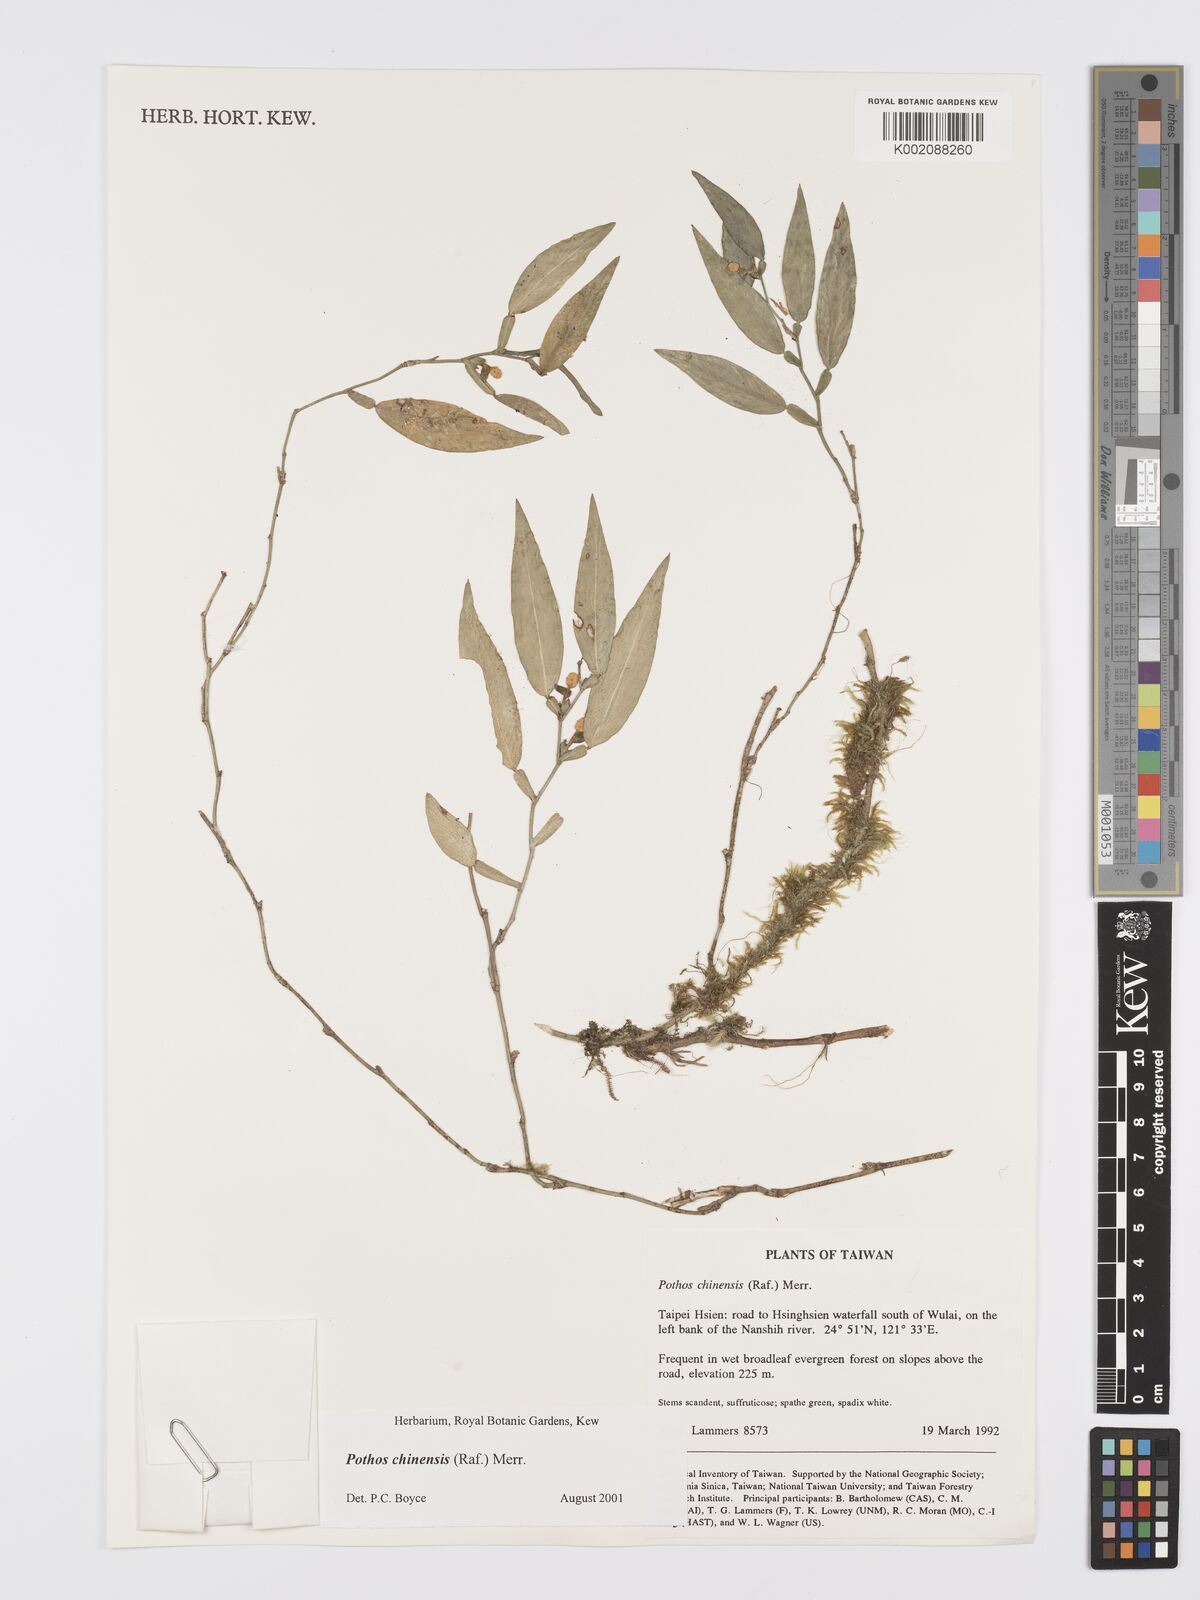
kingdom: Plantae
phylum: Tracheophyta
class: Liliopsida
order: Alismatales
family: Araceae
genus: Pothos
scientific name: Pothos chinensis
